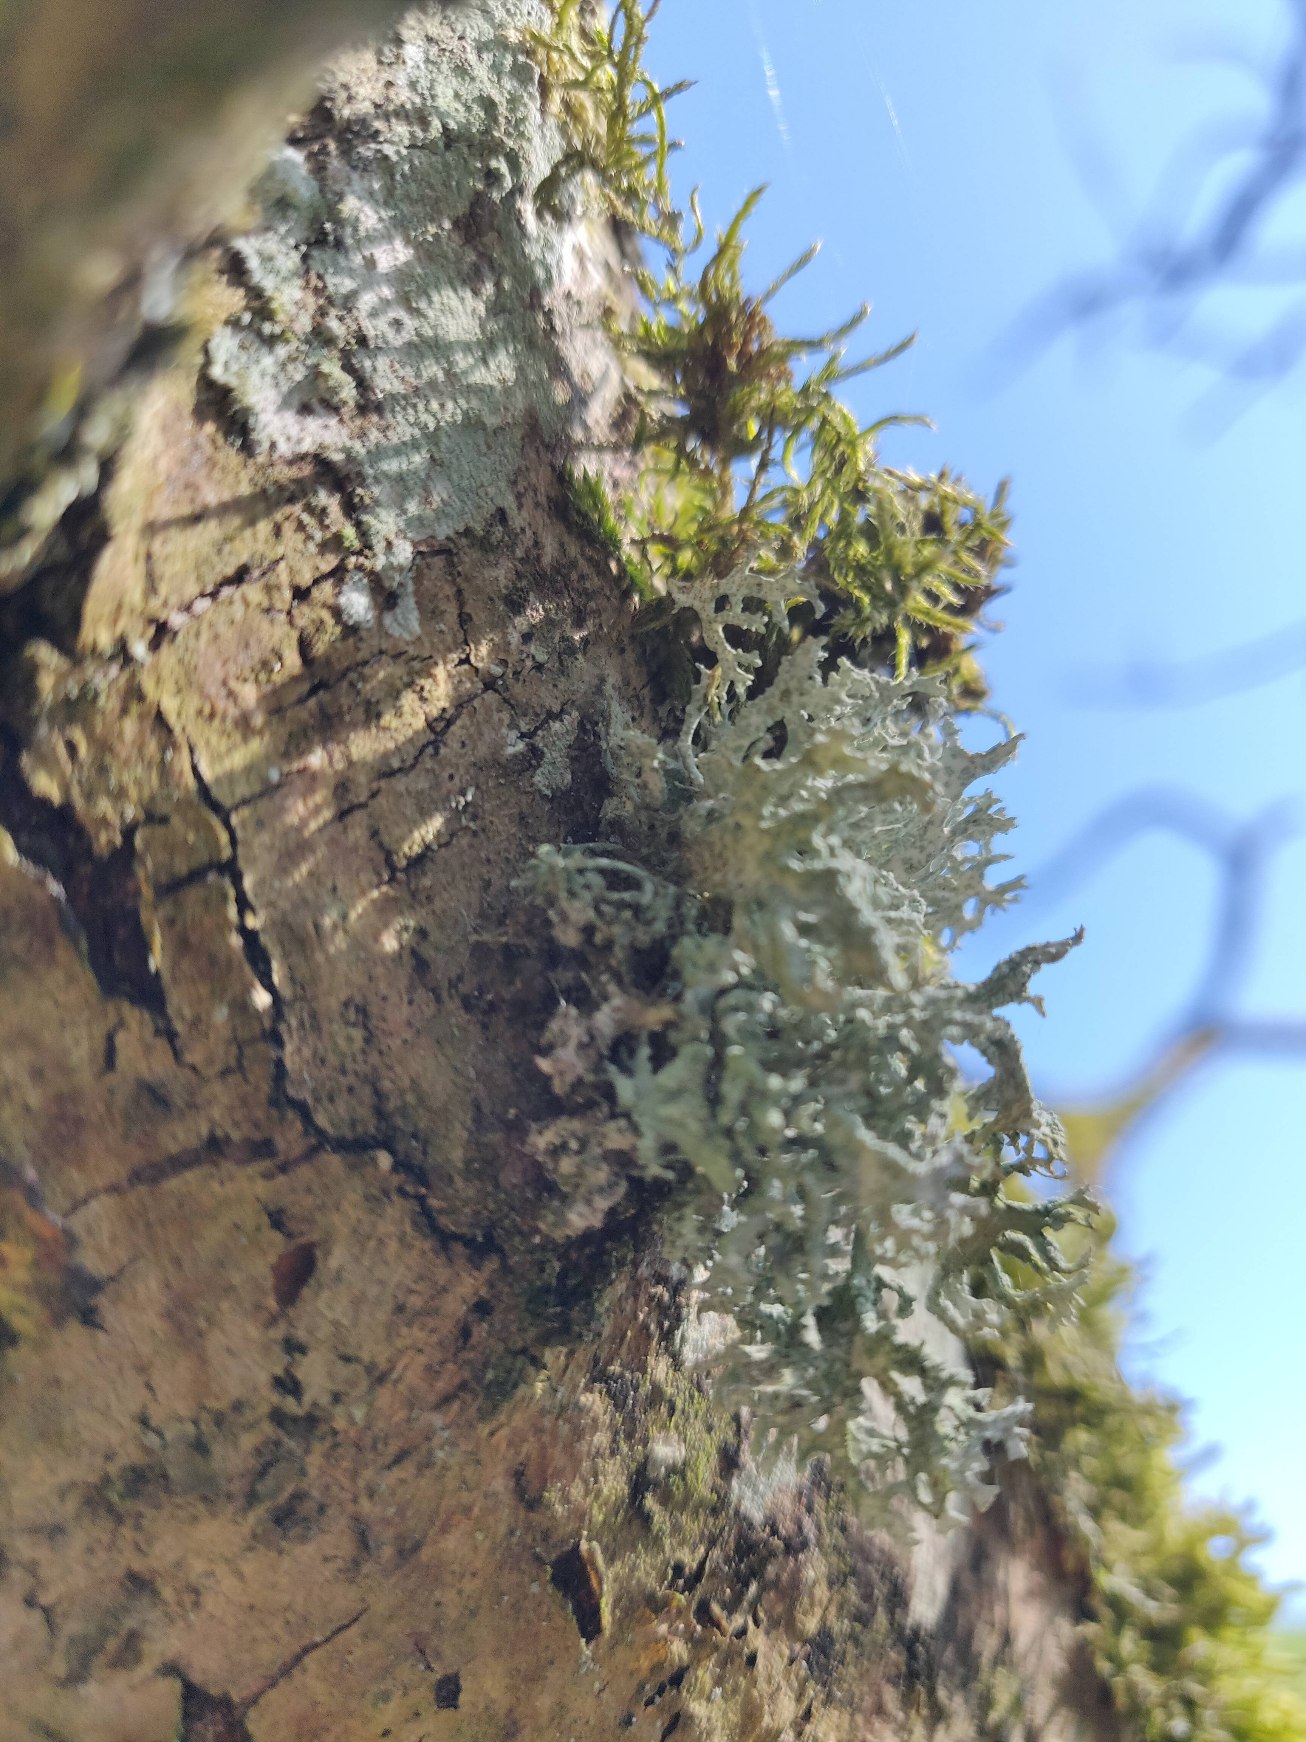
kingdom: Fungi
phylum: Ascomycota
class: Lecanoromycetes
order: Lecanorales
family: Parmeliaceae
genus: Evernia
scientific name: Evernia prunastri
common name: Almindelig slåenlav
